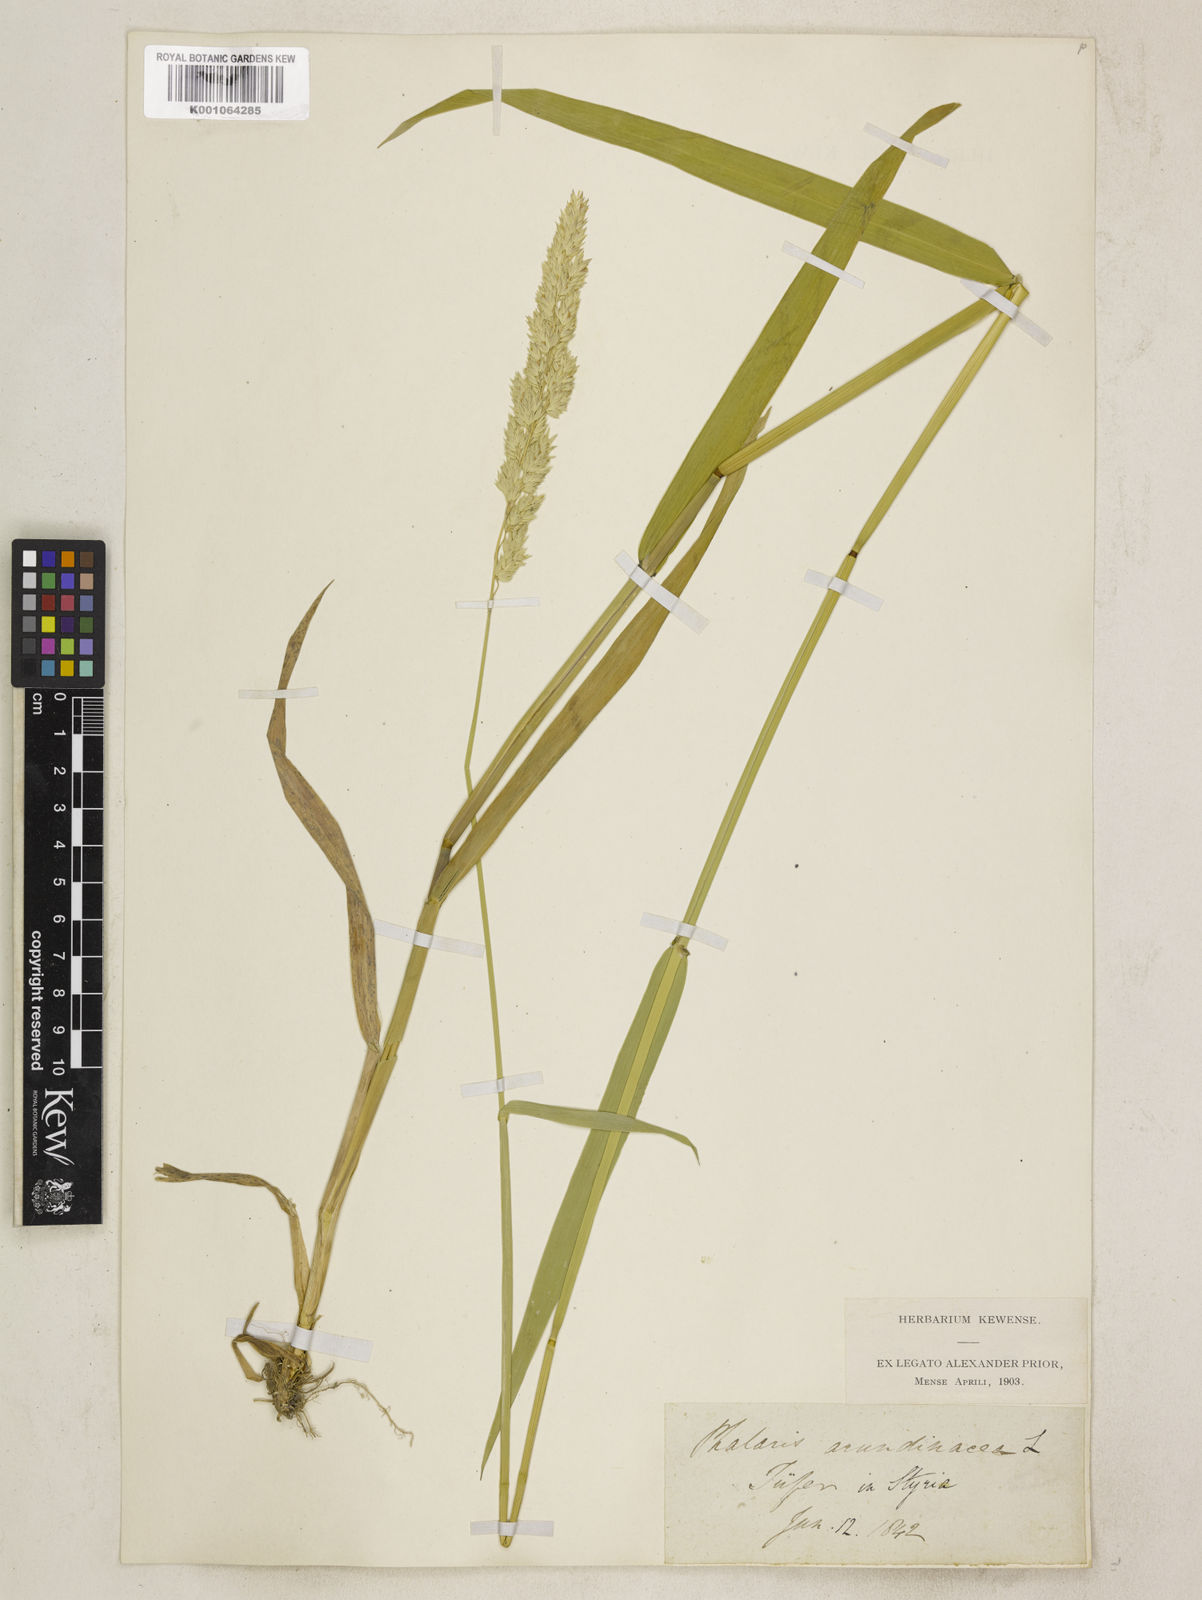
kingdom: Plantae
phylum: Tracheophyta
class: Liliopsida
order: Poales
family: Poaceae
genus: Phalaris
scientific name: Phalaris arundinacea
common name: Reed canary-grass
